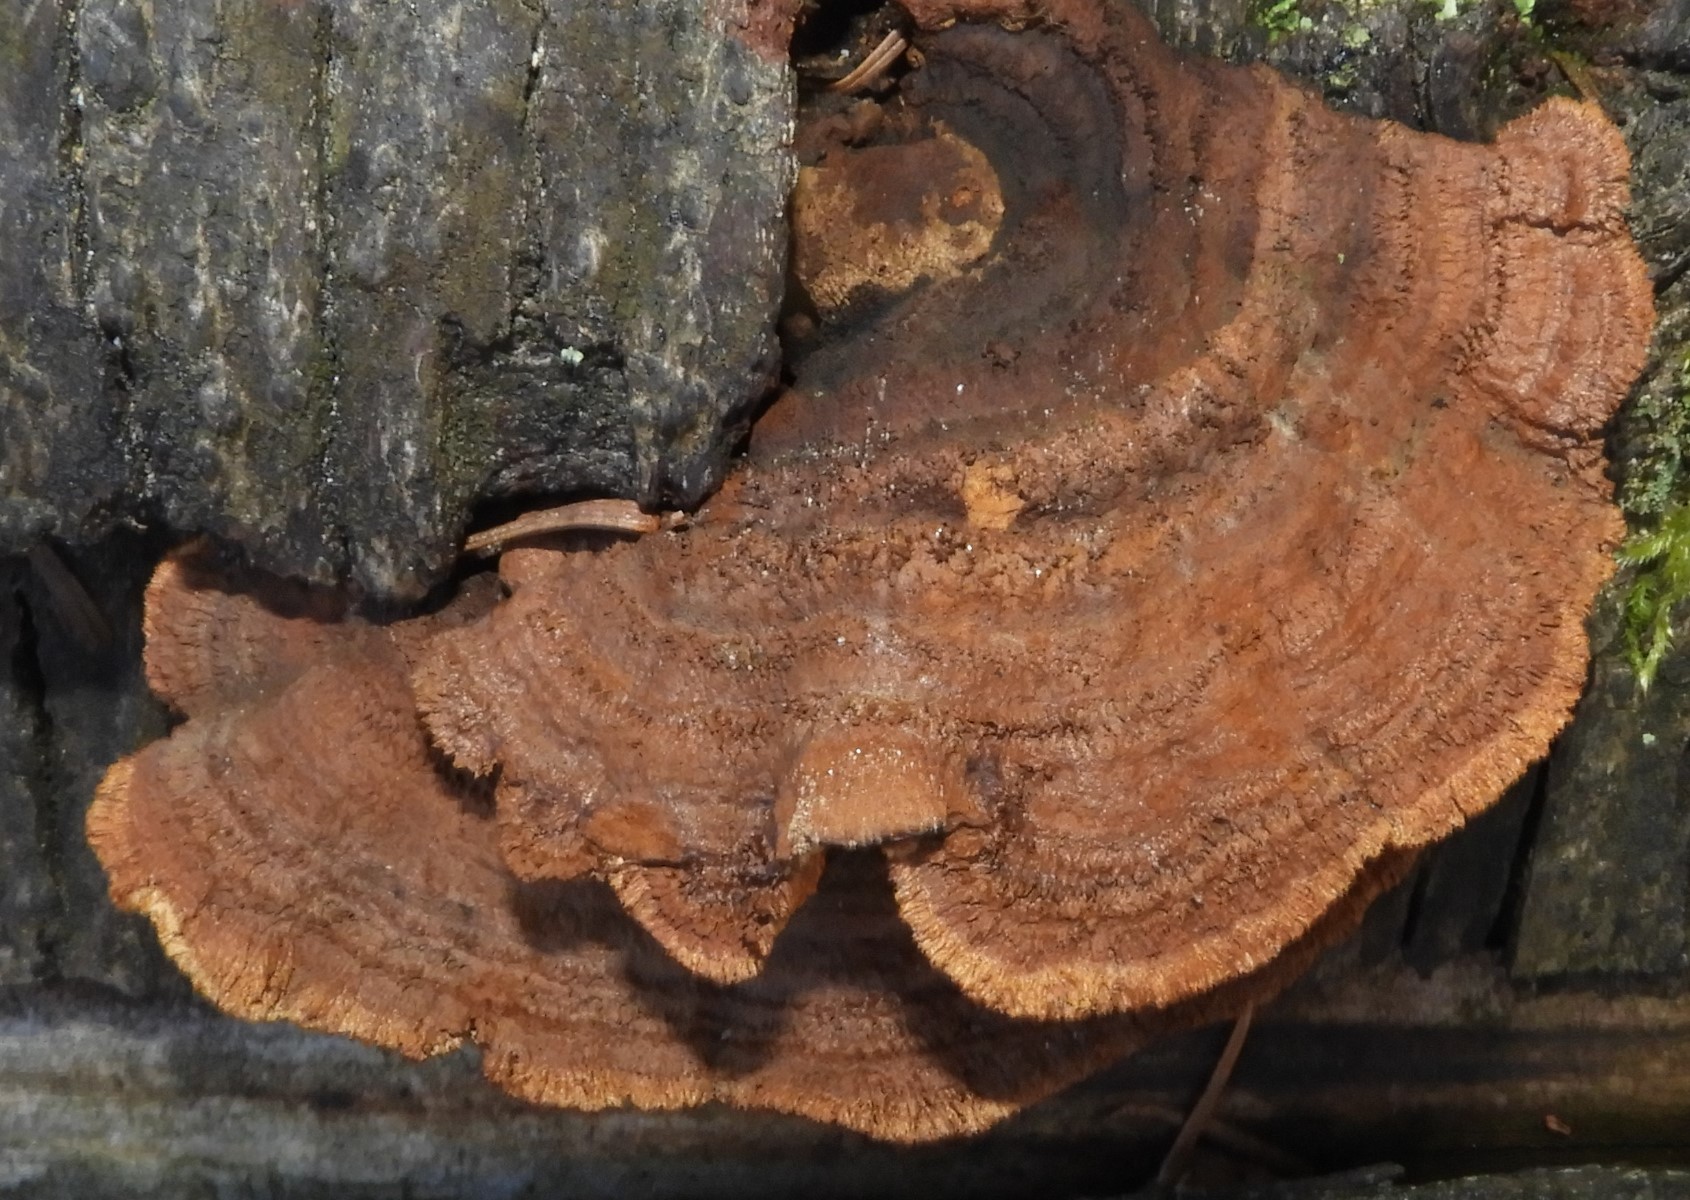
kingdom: Fungi
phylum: Basidiomycota
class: Agaricomycetes
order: Gloeophyllales
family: Gloeophyllaceae
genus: Gloeophyllum
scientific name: Gloeophyllum sepiarium
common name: fyrre-korkhat
